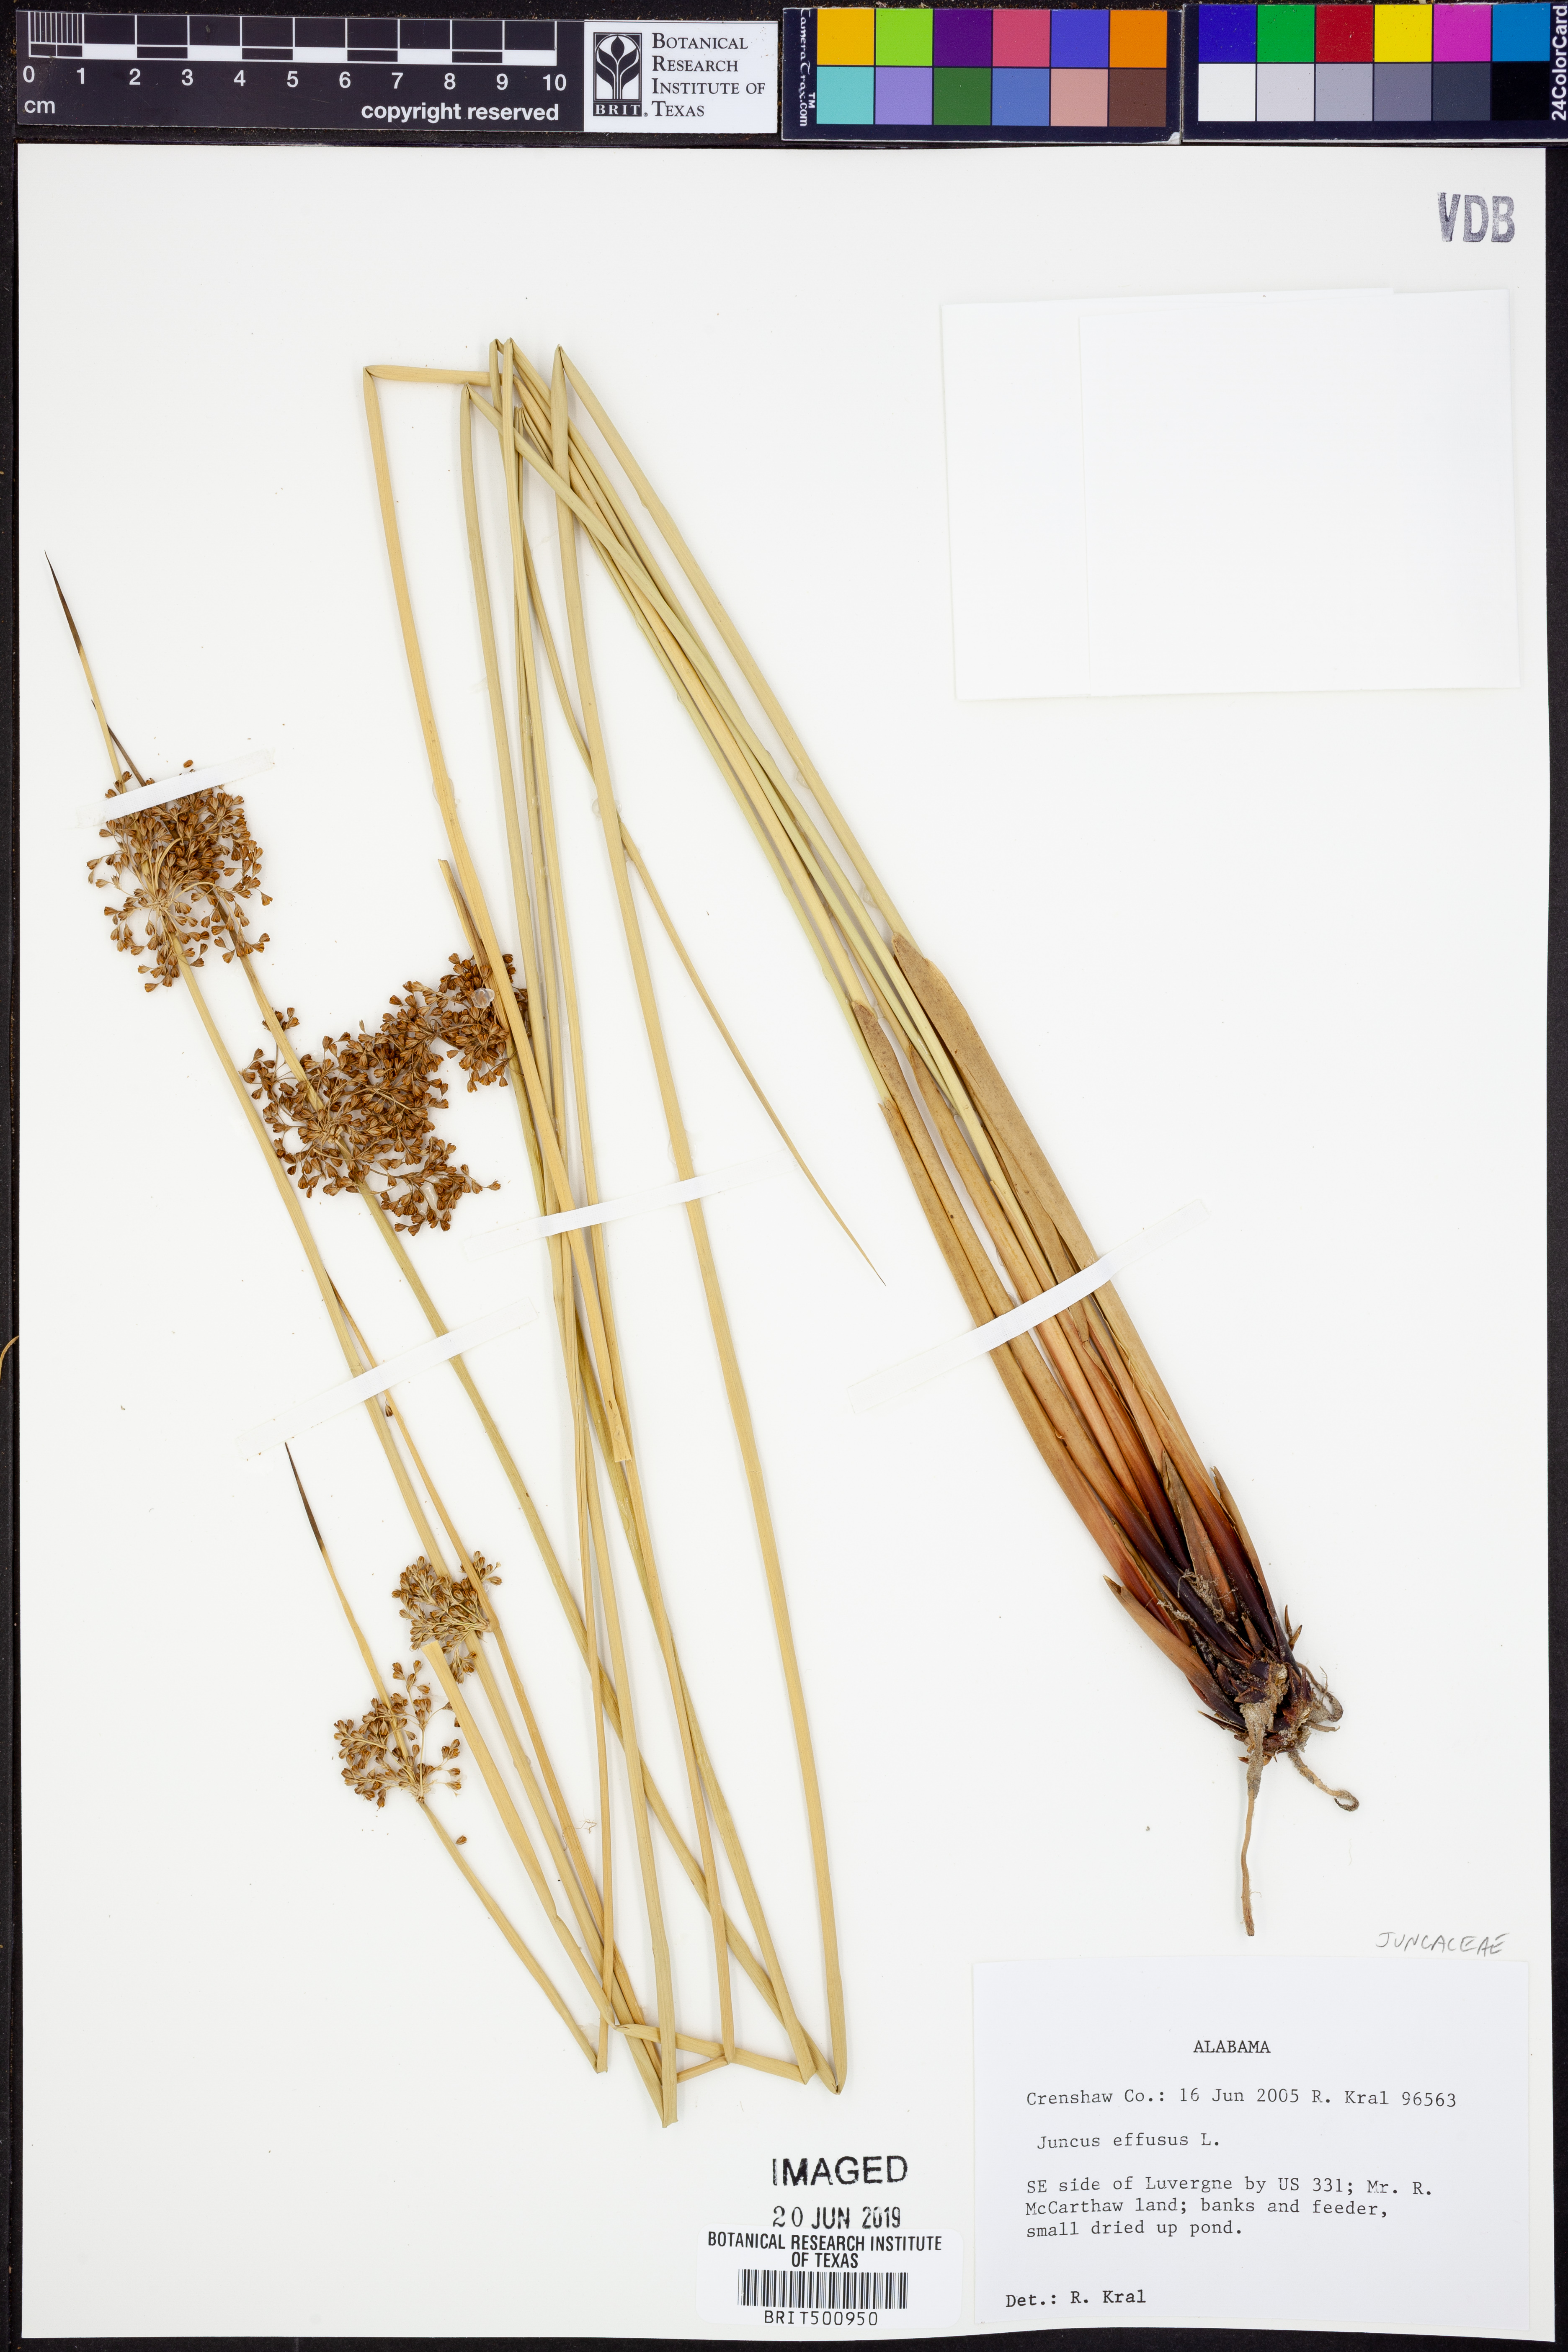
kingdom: Plantae
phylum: Tracheophyta
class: Liliopsida
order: Poales
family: Juncaceae
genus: Juncus
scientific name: Juncus effusus
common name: Soft rush
